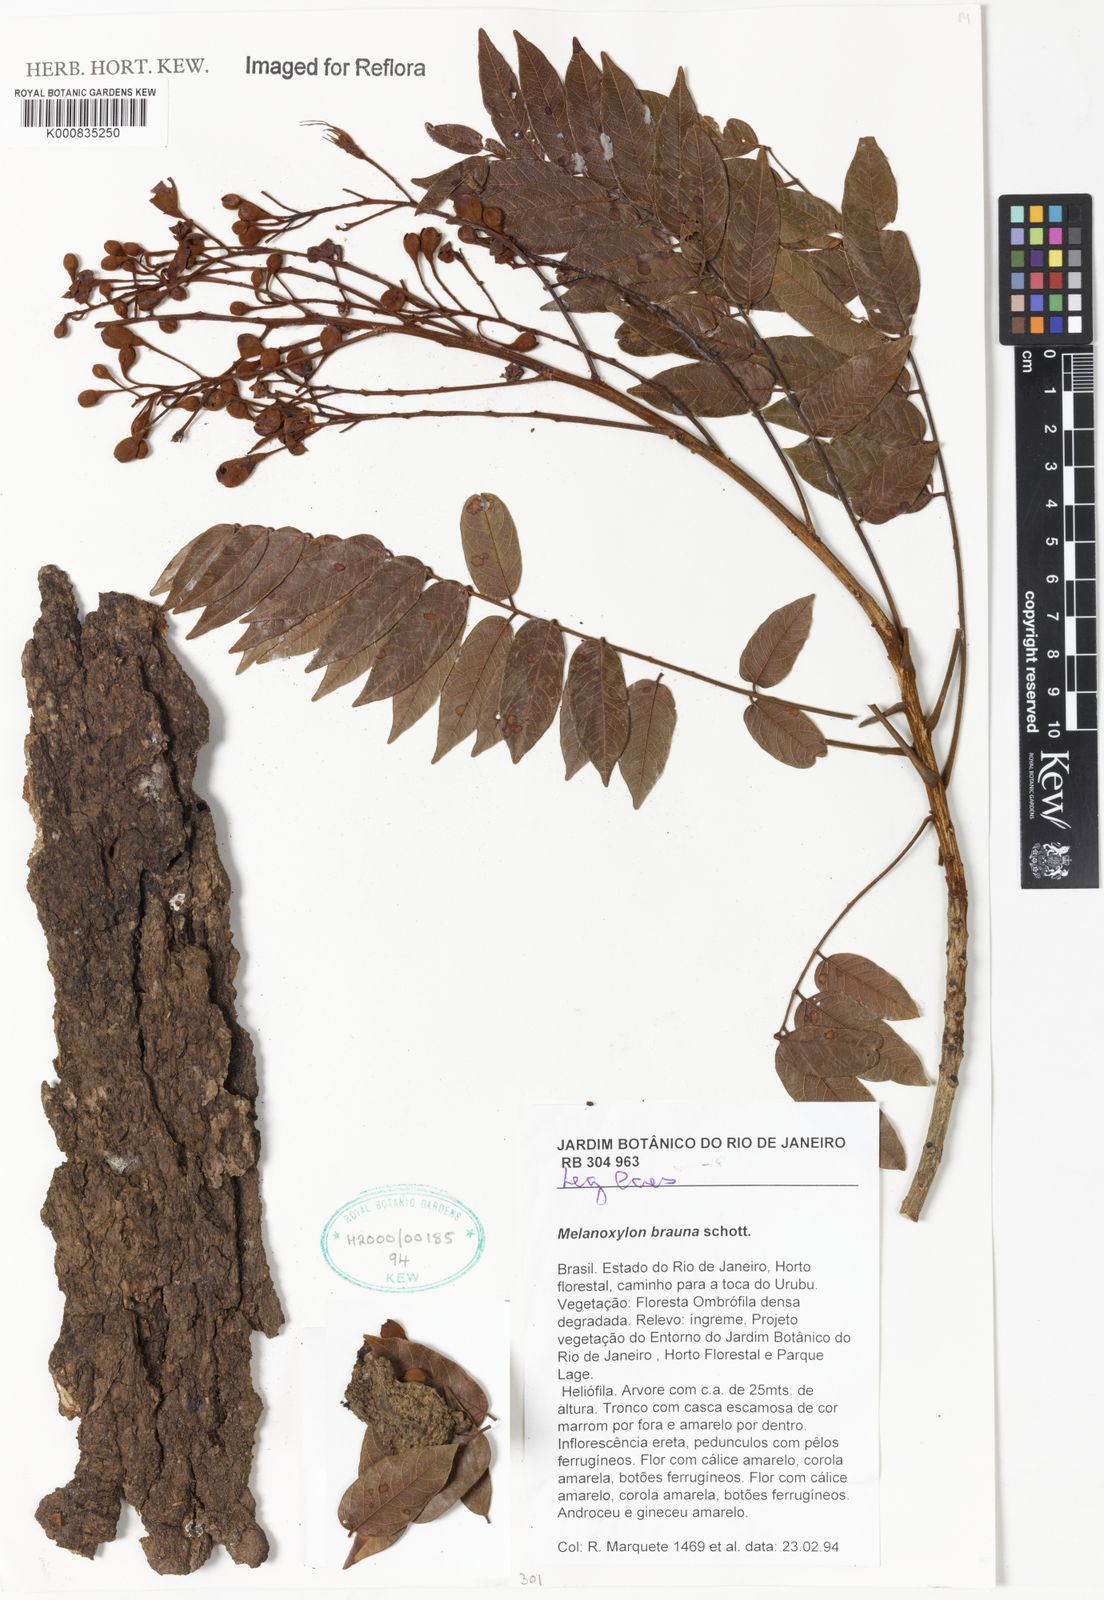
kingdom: Plantae
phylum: Tracheophyta
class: Magnoliopsida
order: Fabales
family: Fabaceae
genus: Melanoxylum
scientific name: Melanoxylum brauna
